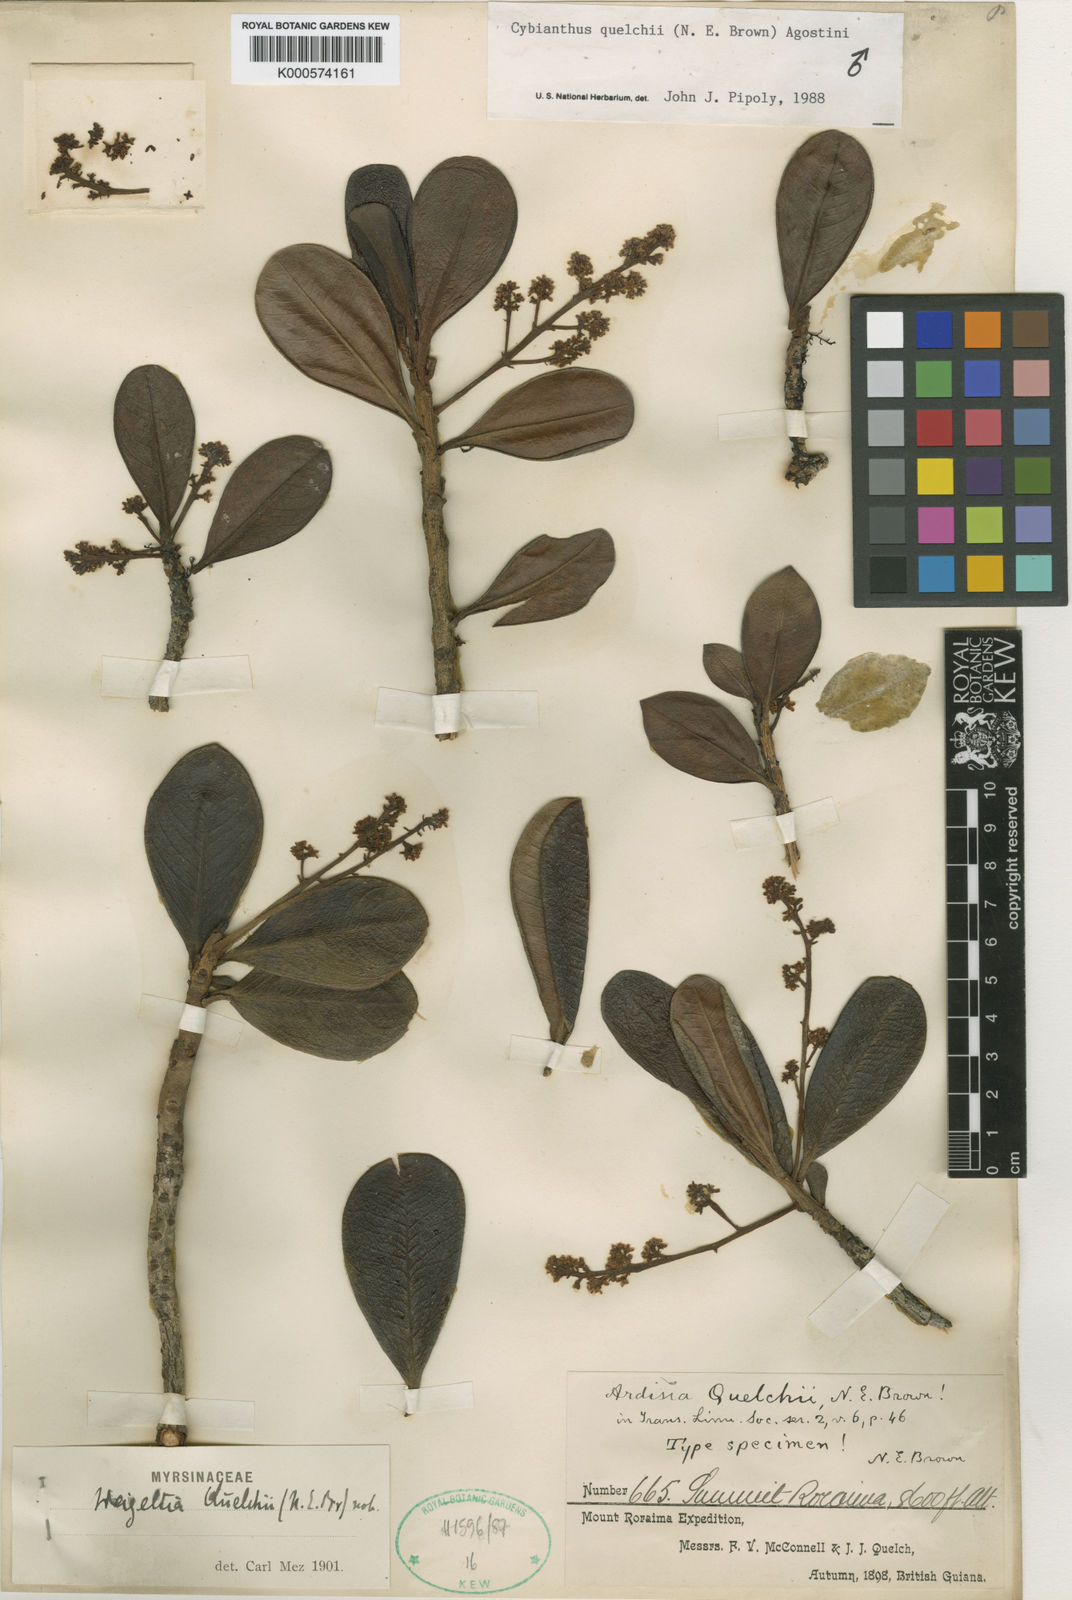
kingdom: Plantae
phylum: Tracheophyta
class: Magnoliopsida
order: Ericales
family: Primulaceae
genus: Cybianthus
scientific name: Cybianthus quelchii
